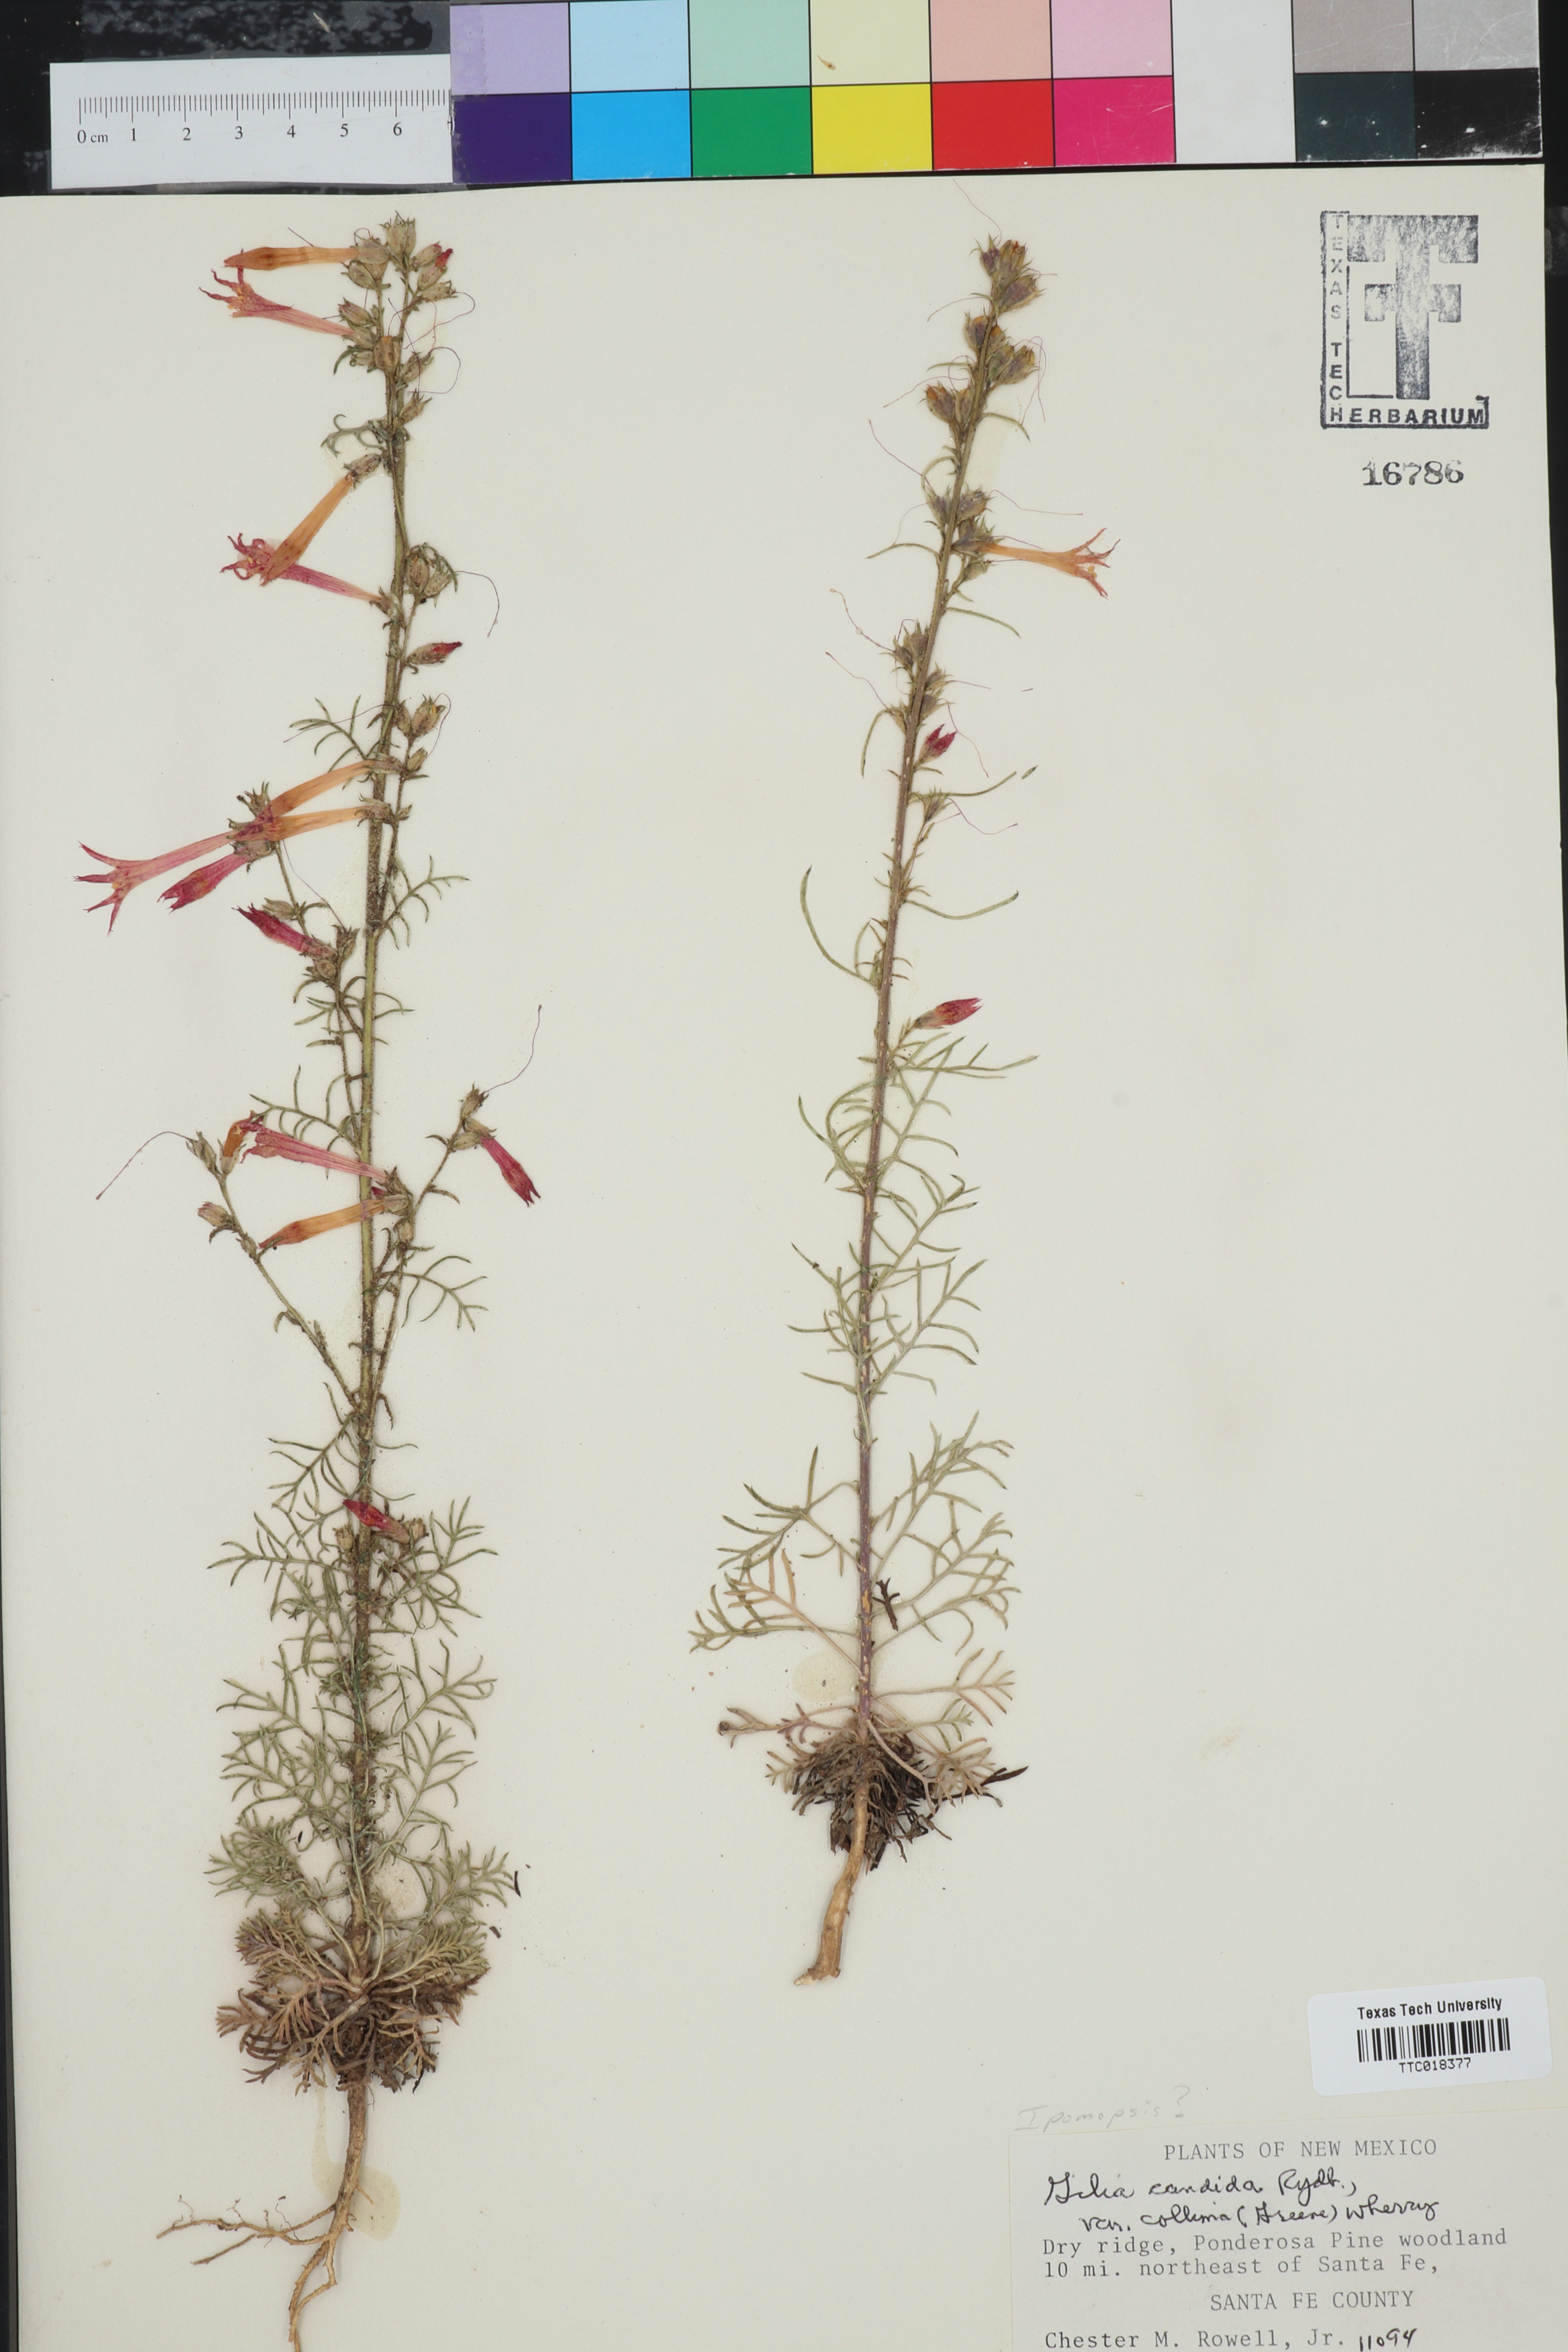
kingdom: Plantae
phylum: Tracheophyta
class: Magnoliopsida
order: Ericales
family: Polemoniaceae
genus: Ipomopsis
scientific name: Ipomopsis
